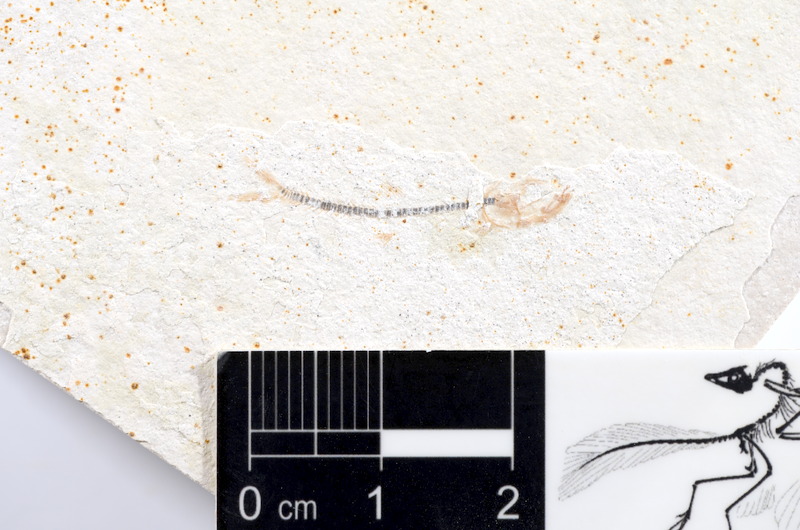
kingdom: Animalia
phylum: Chordata
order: Salmoniformes
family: Orthogonikleithridae
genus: Orthogonikleithrus
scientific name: Orthogonikleithrus hoelli
